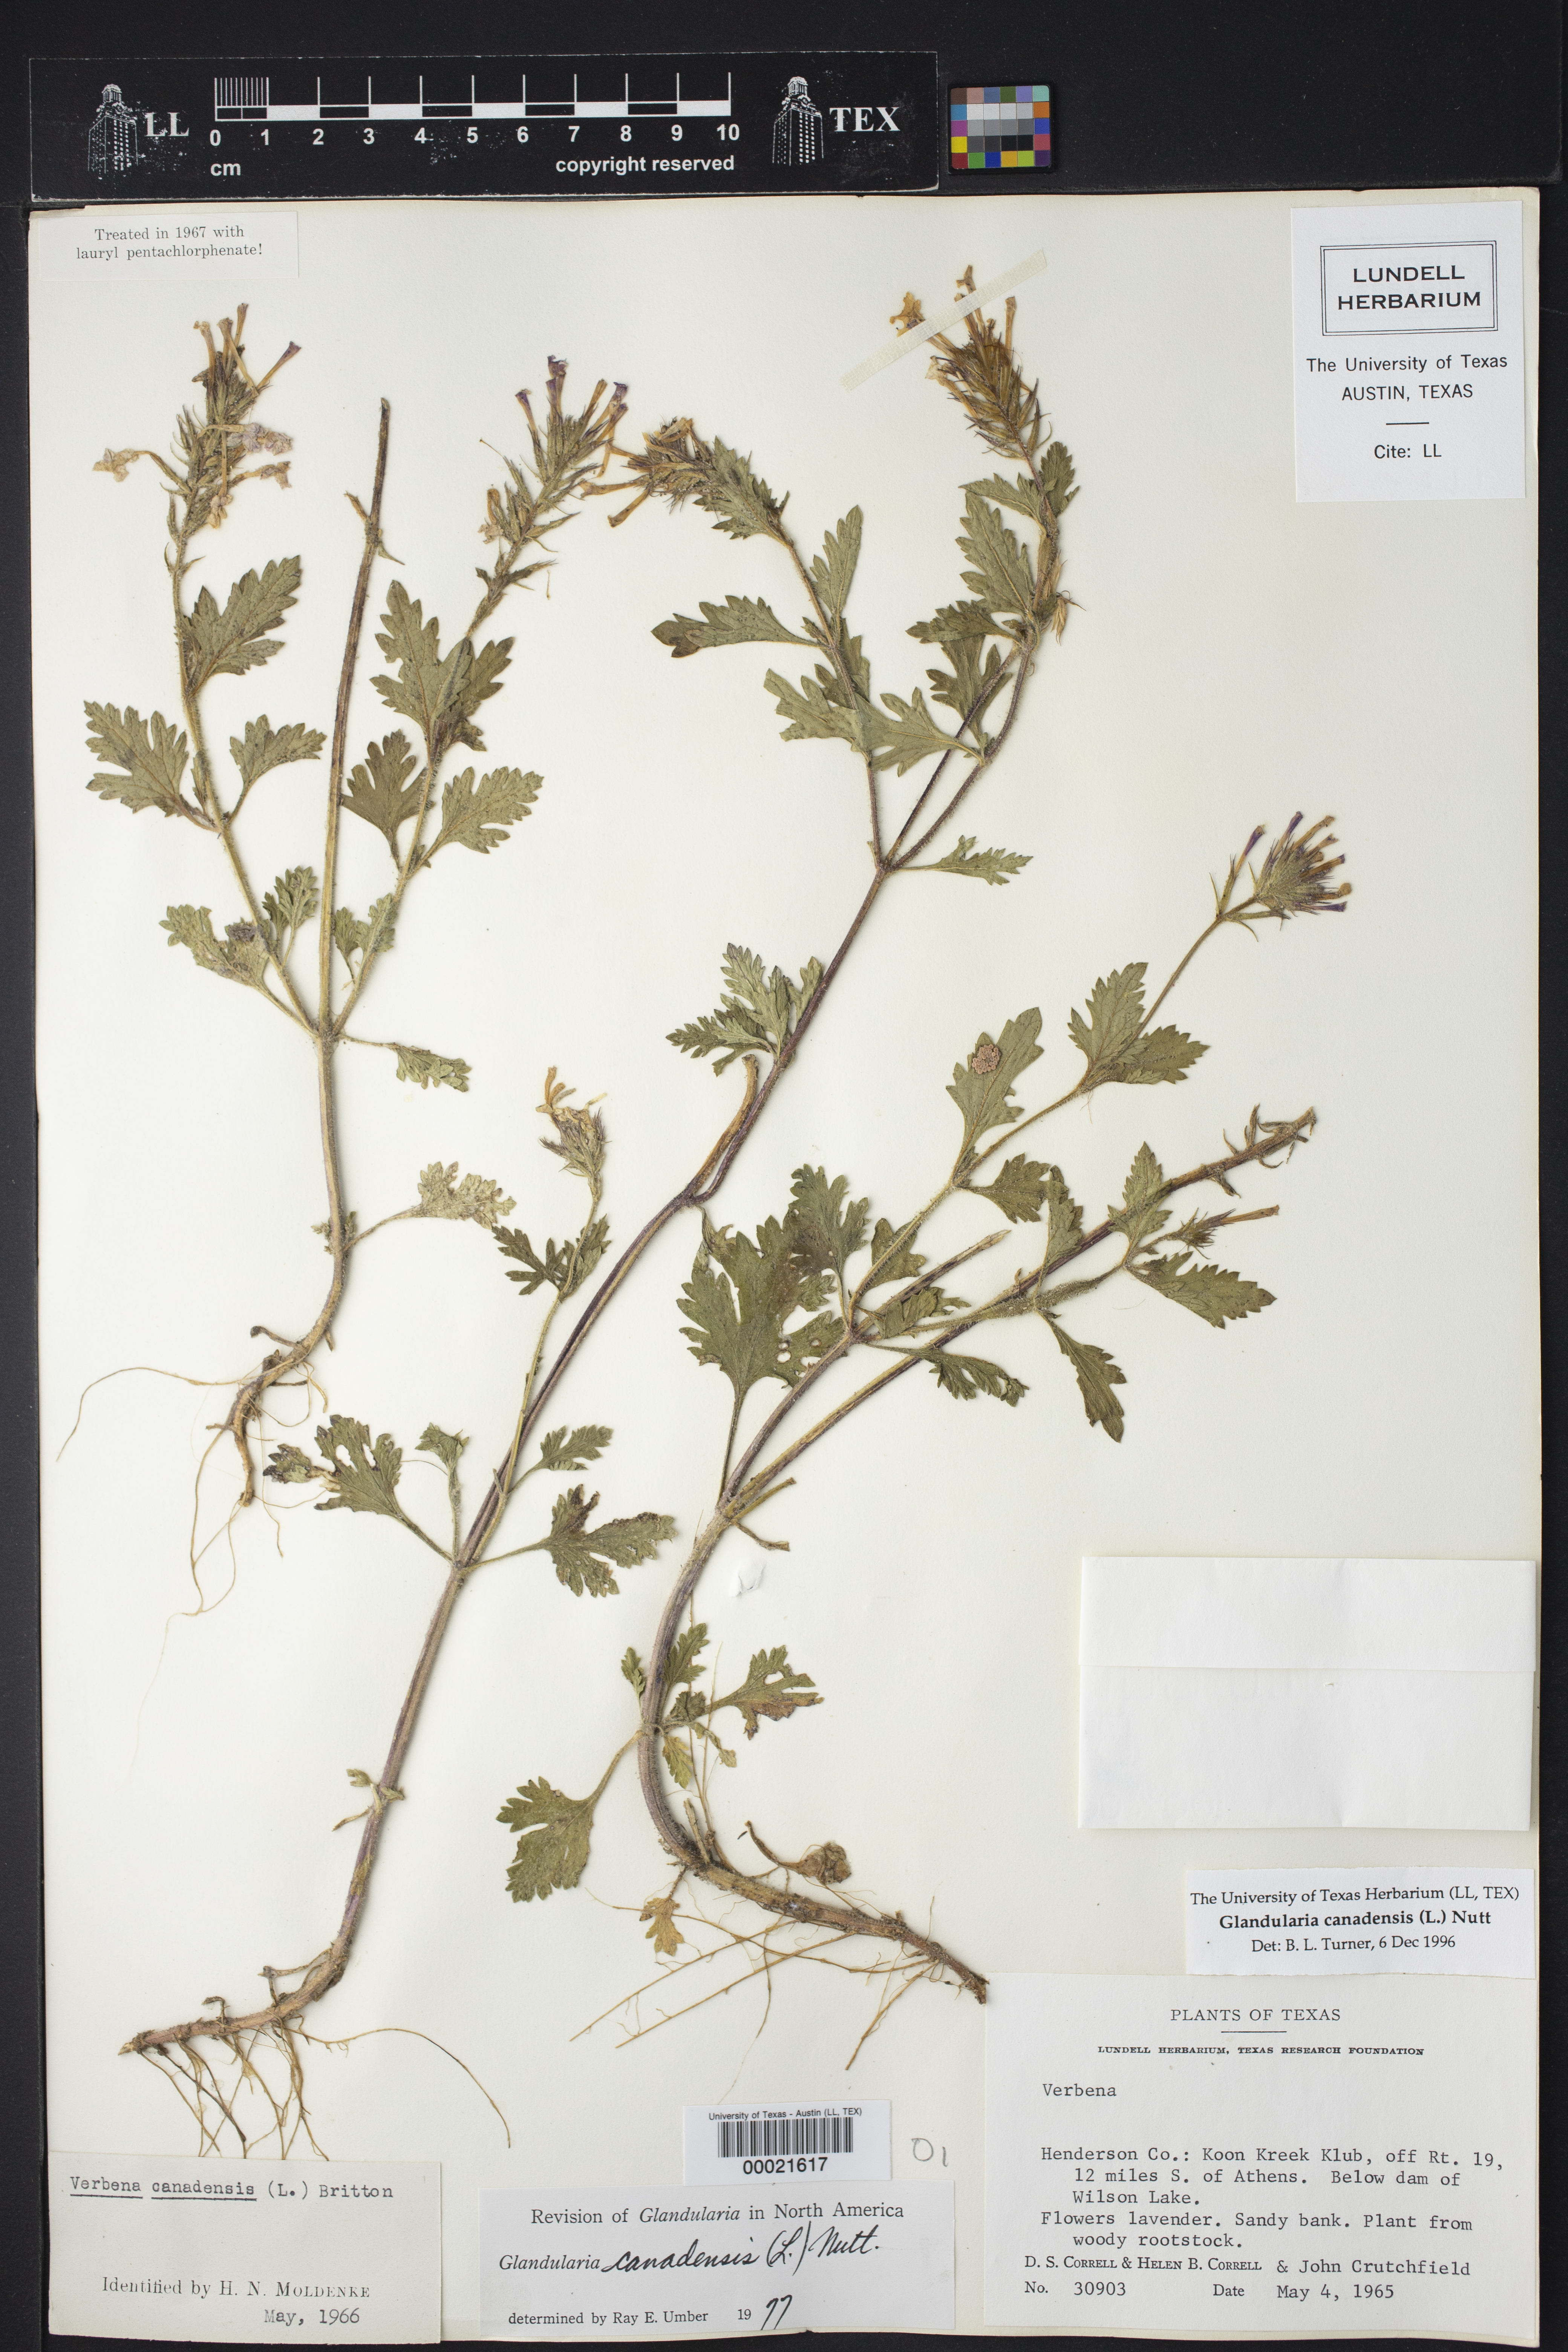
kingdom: Plantae
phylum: Tracheophyta
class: Magnoliopsida
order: Lamiales
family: Verbenaceae
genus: Verbena
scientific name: Verbena canadensis
